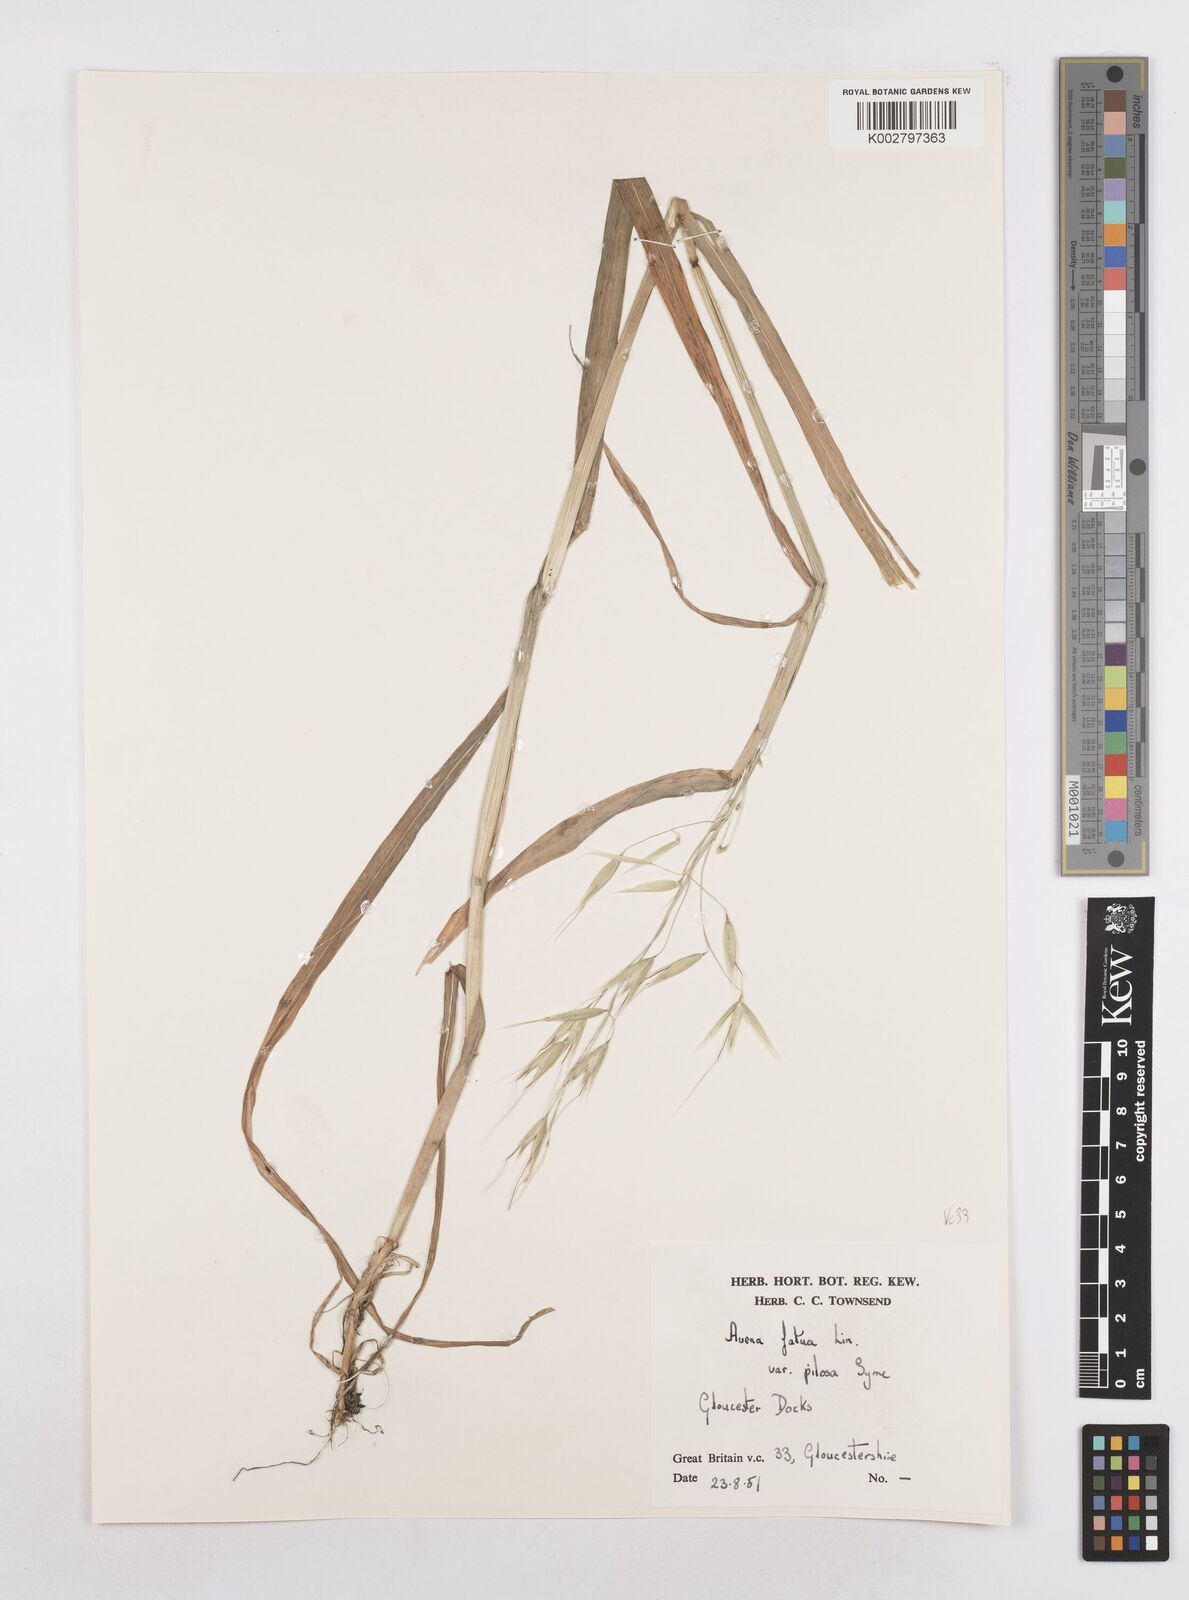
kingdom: Plantae
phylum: Tracheophyta
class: Liliopsida
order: Poales
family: Poaceae
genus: Avena
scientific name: Avena fatua
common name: Wild oat
